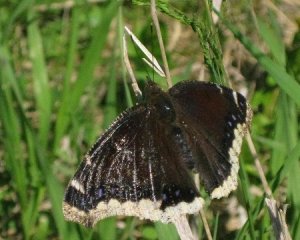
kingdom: Animalia
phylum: Arthropoda
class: Insecta
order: Lepidoptera
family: Nymphalidae
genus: Nymphalis
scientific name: Nymphalis antiopa
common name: Mourning Cloak
